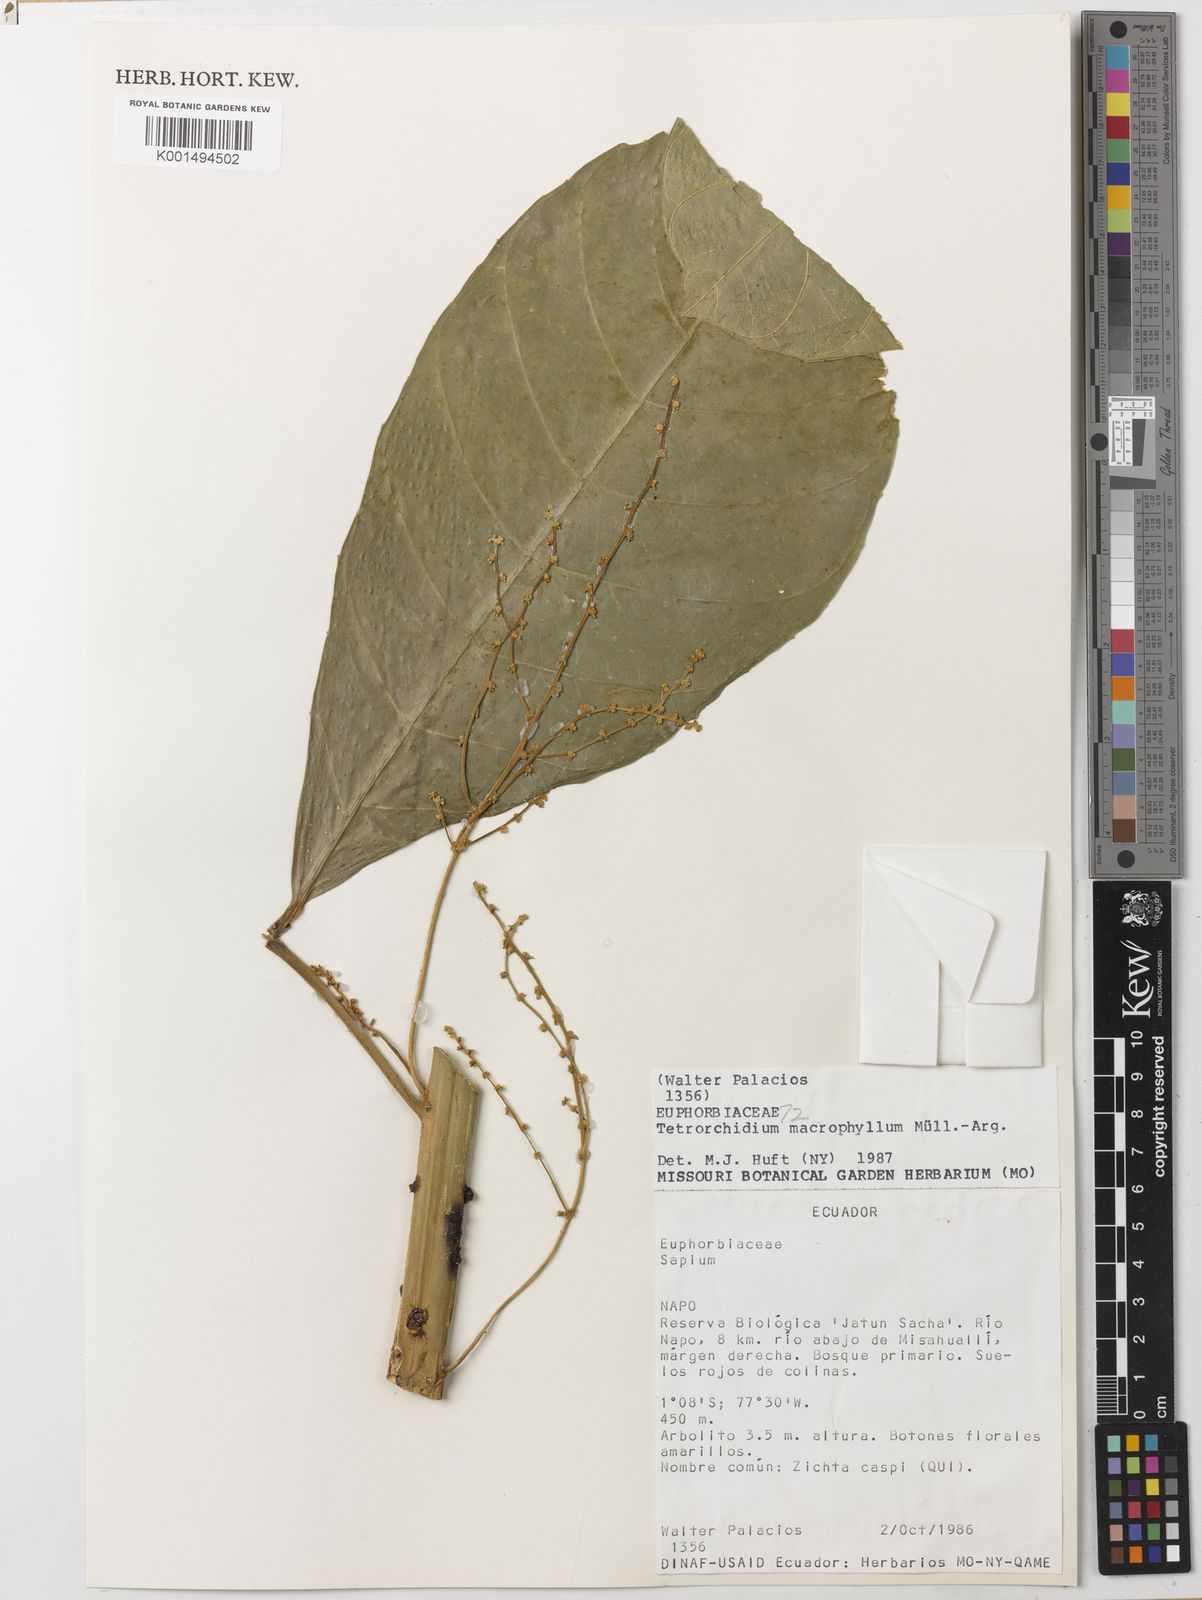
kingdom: Plantae
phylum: Tracheophyta
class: Magnoliopsida
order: Malpighiales
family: Euphorbiaceae
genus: Tetrorchidium
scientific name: Tetrorchidium macrophyllum
